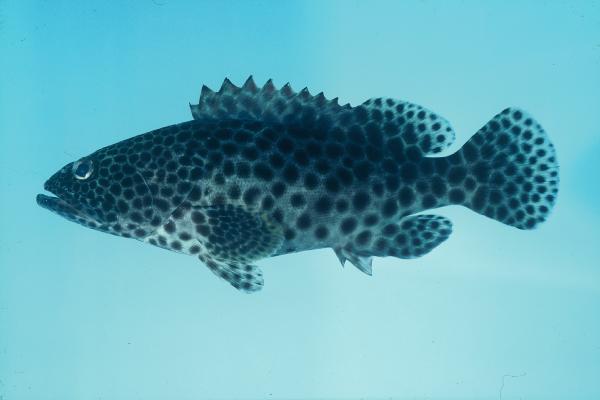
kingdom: Animalia
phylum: Chordata
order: Perciformes
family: Serranidae
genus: Epinephelus
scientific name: Epinephelus tauvina
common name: Greasy grouper
